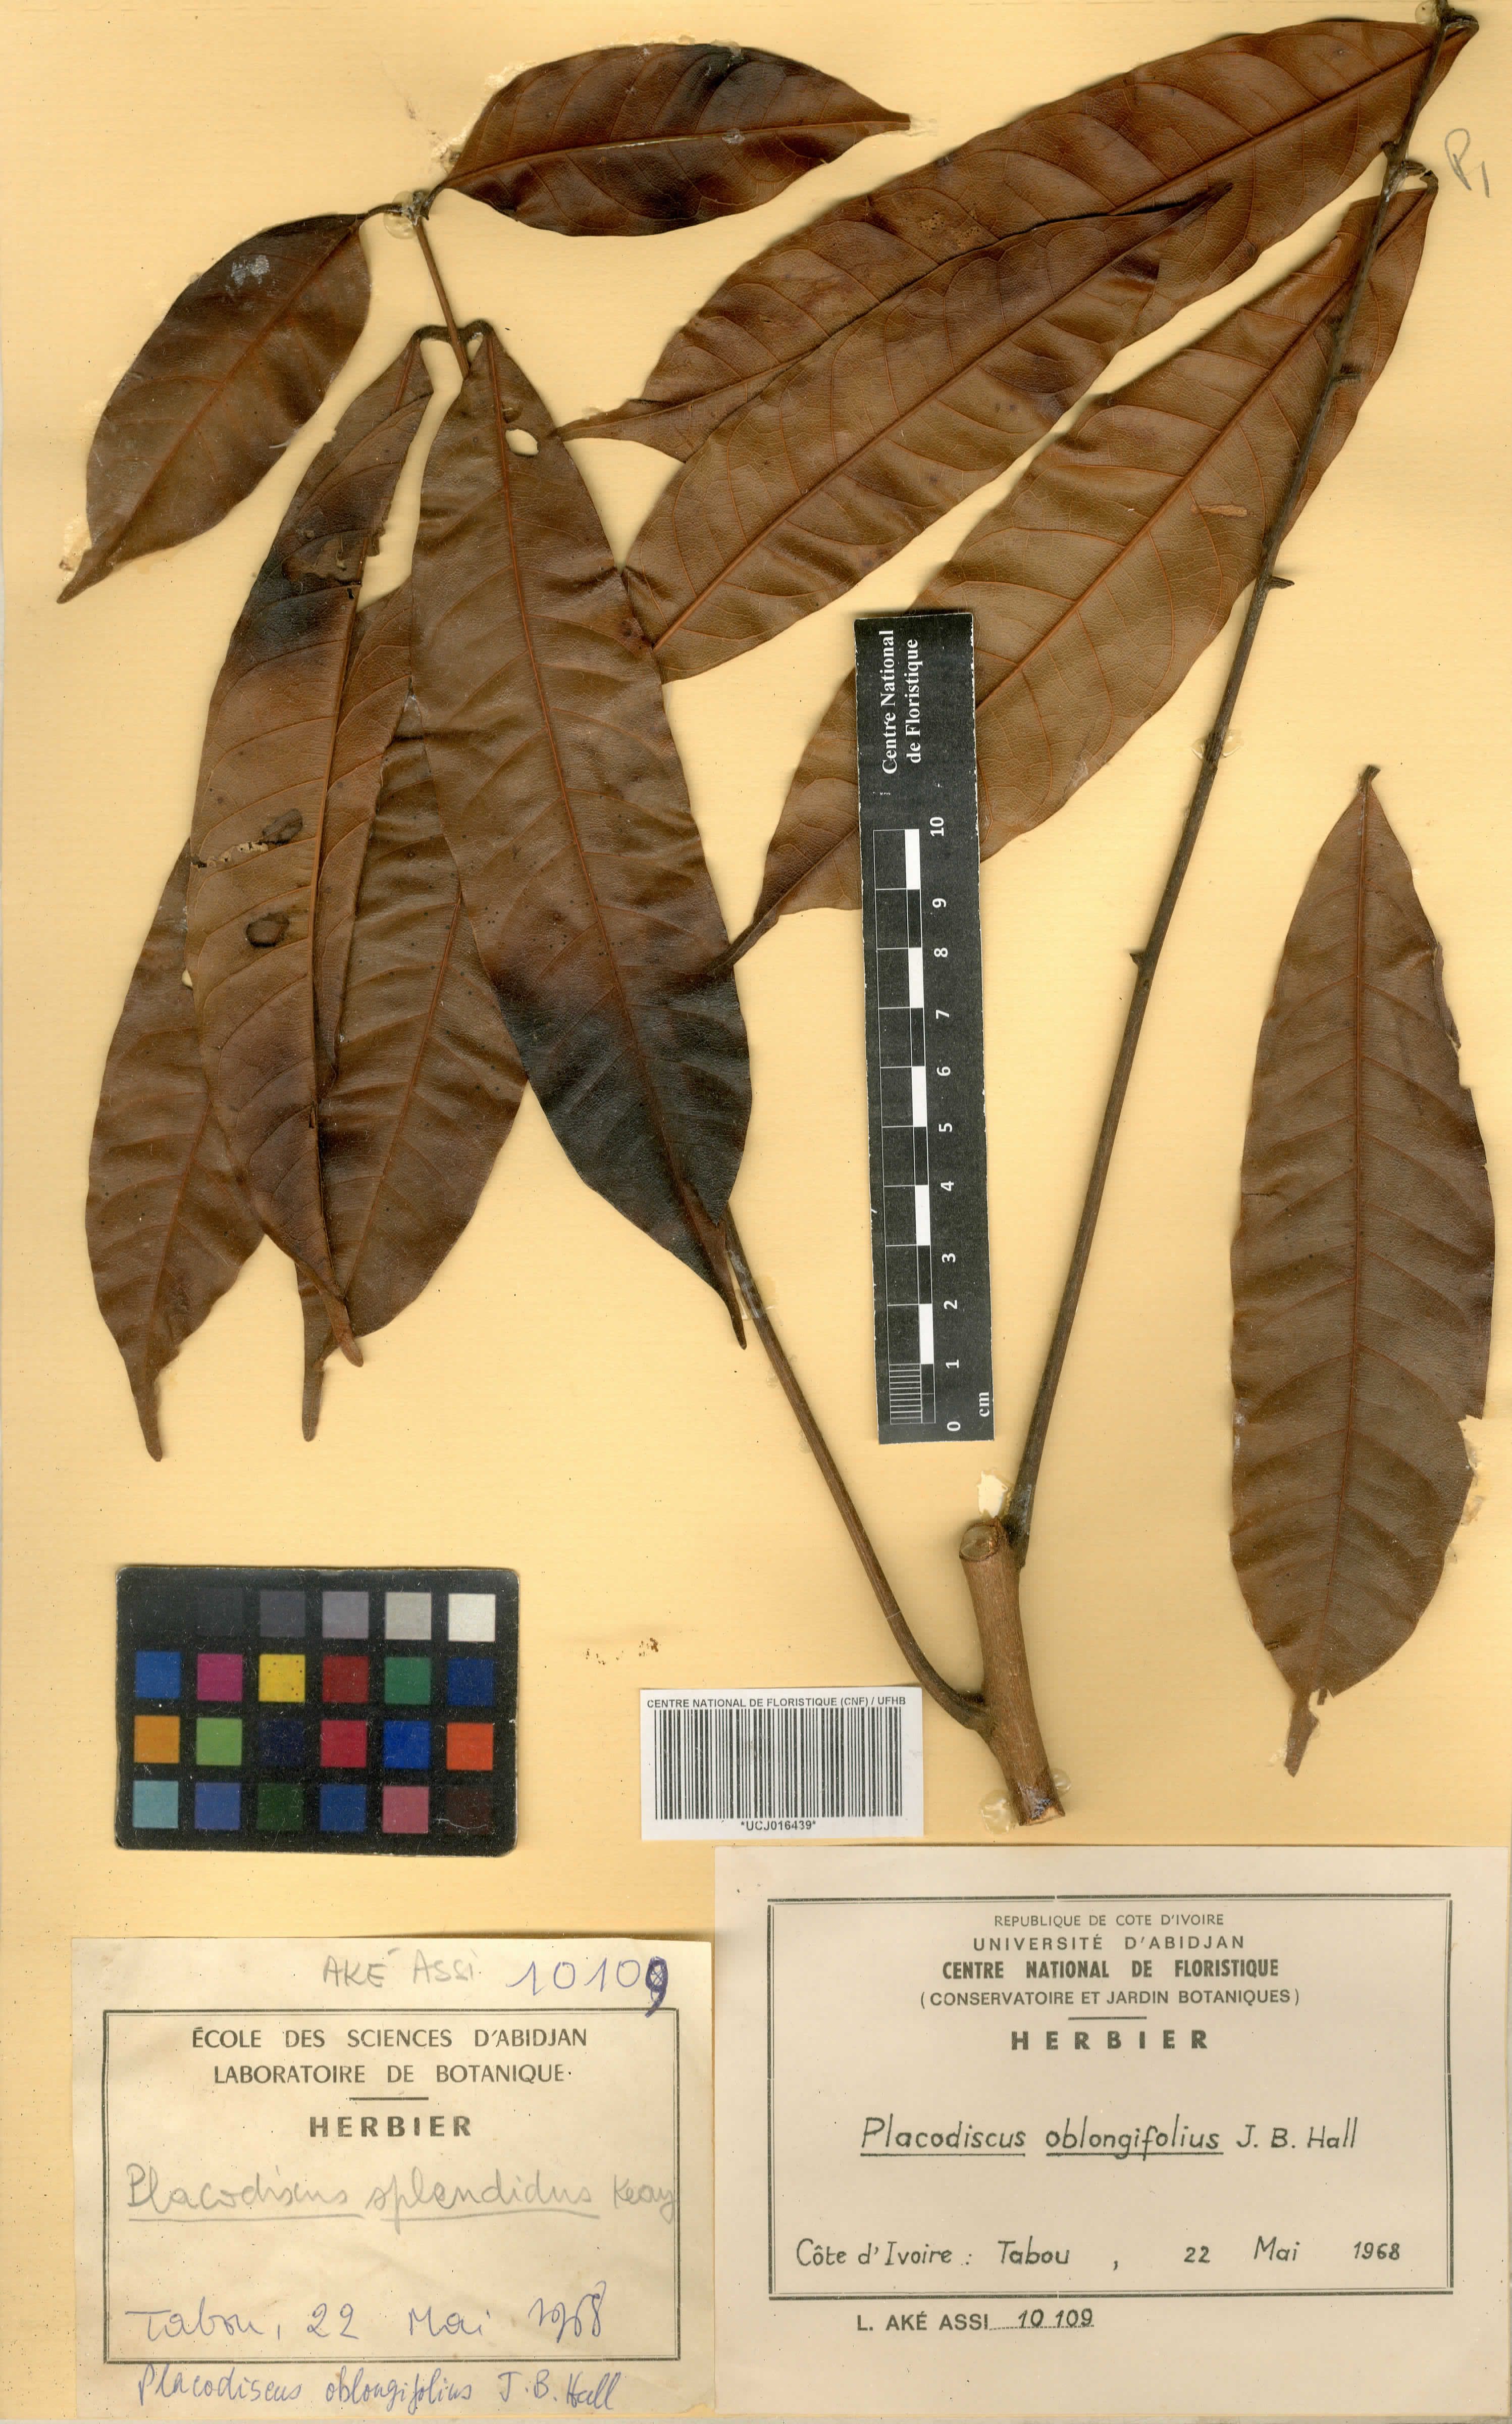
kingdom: Plantae
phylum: Tracheophyta
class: Magnoliopsida
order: Sapindales
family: Sapindaceae
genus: Placodiscus
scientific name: Placodiscus oblongifolius
